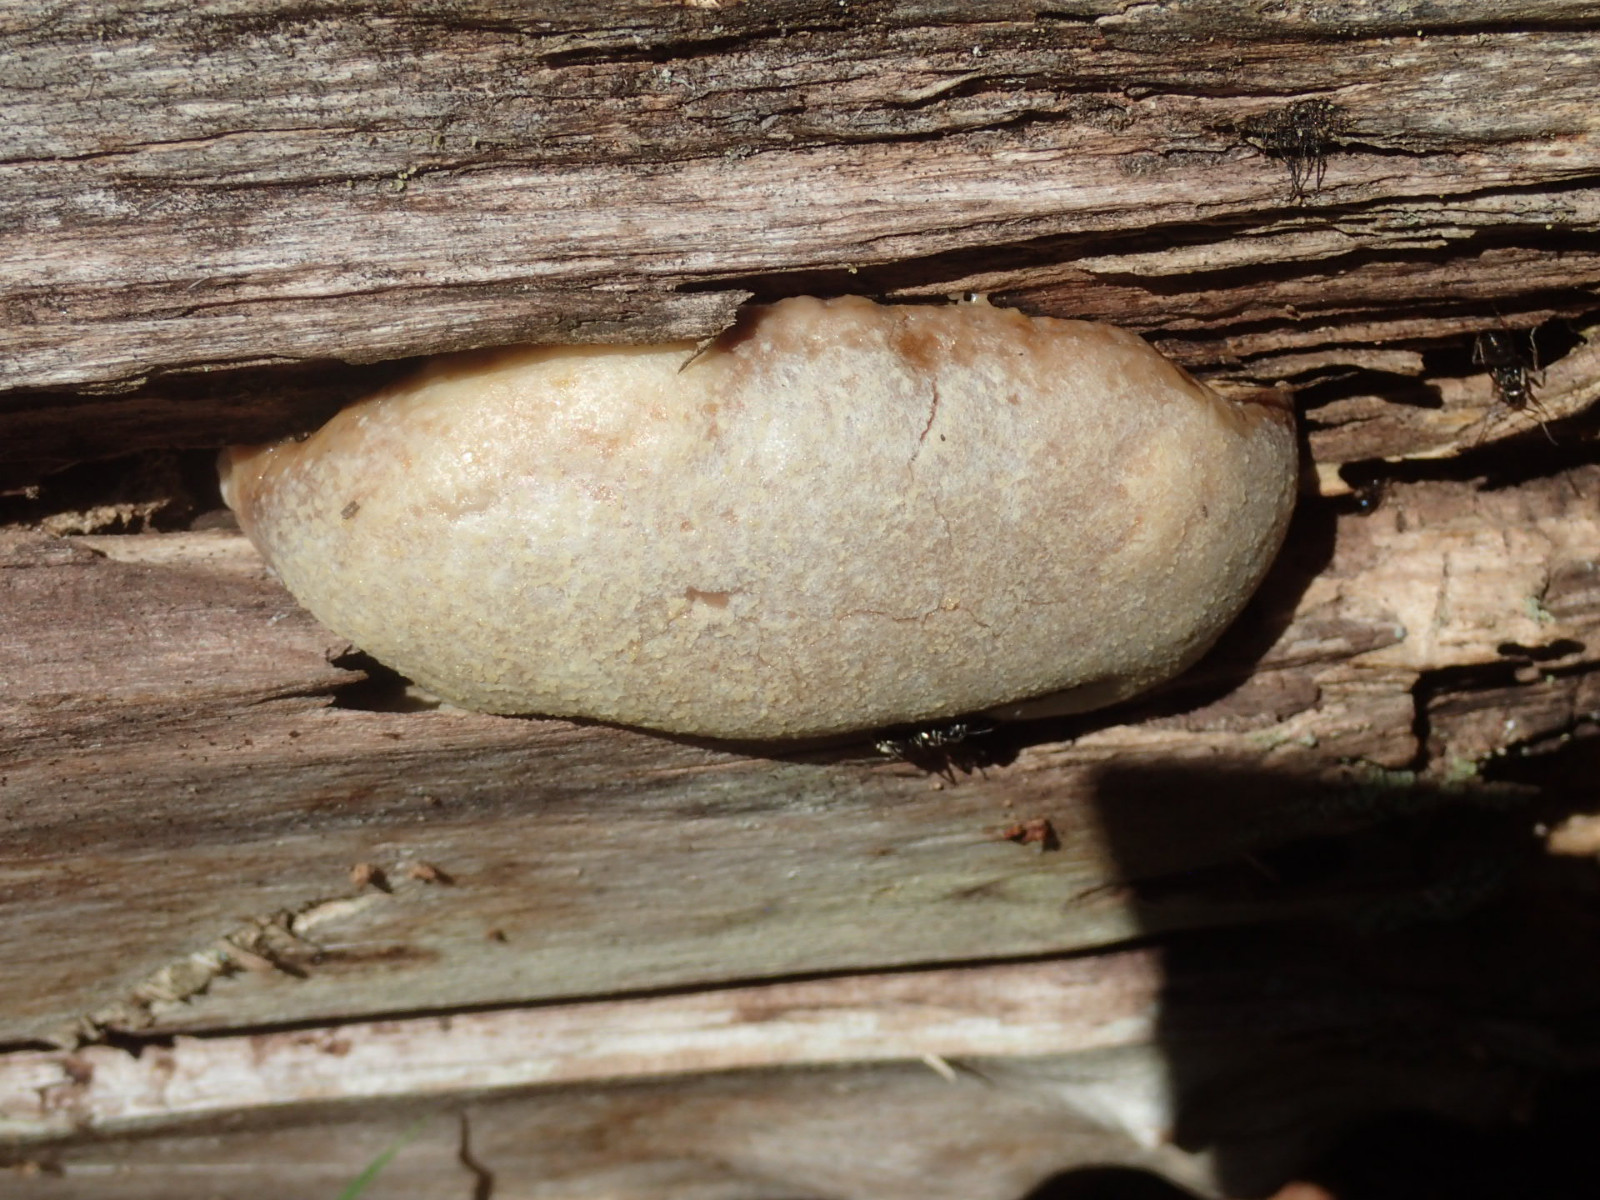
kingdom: Protozoa
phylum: Mycetozoa
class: Myxomycetes
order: Cribrariales
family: Tubiferaceae
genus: Reticularia
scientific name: Reticularia lycoperdon
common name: skinnende støvpude
